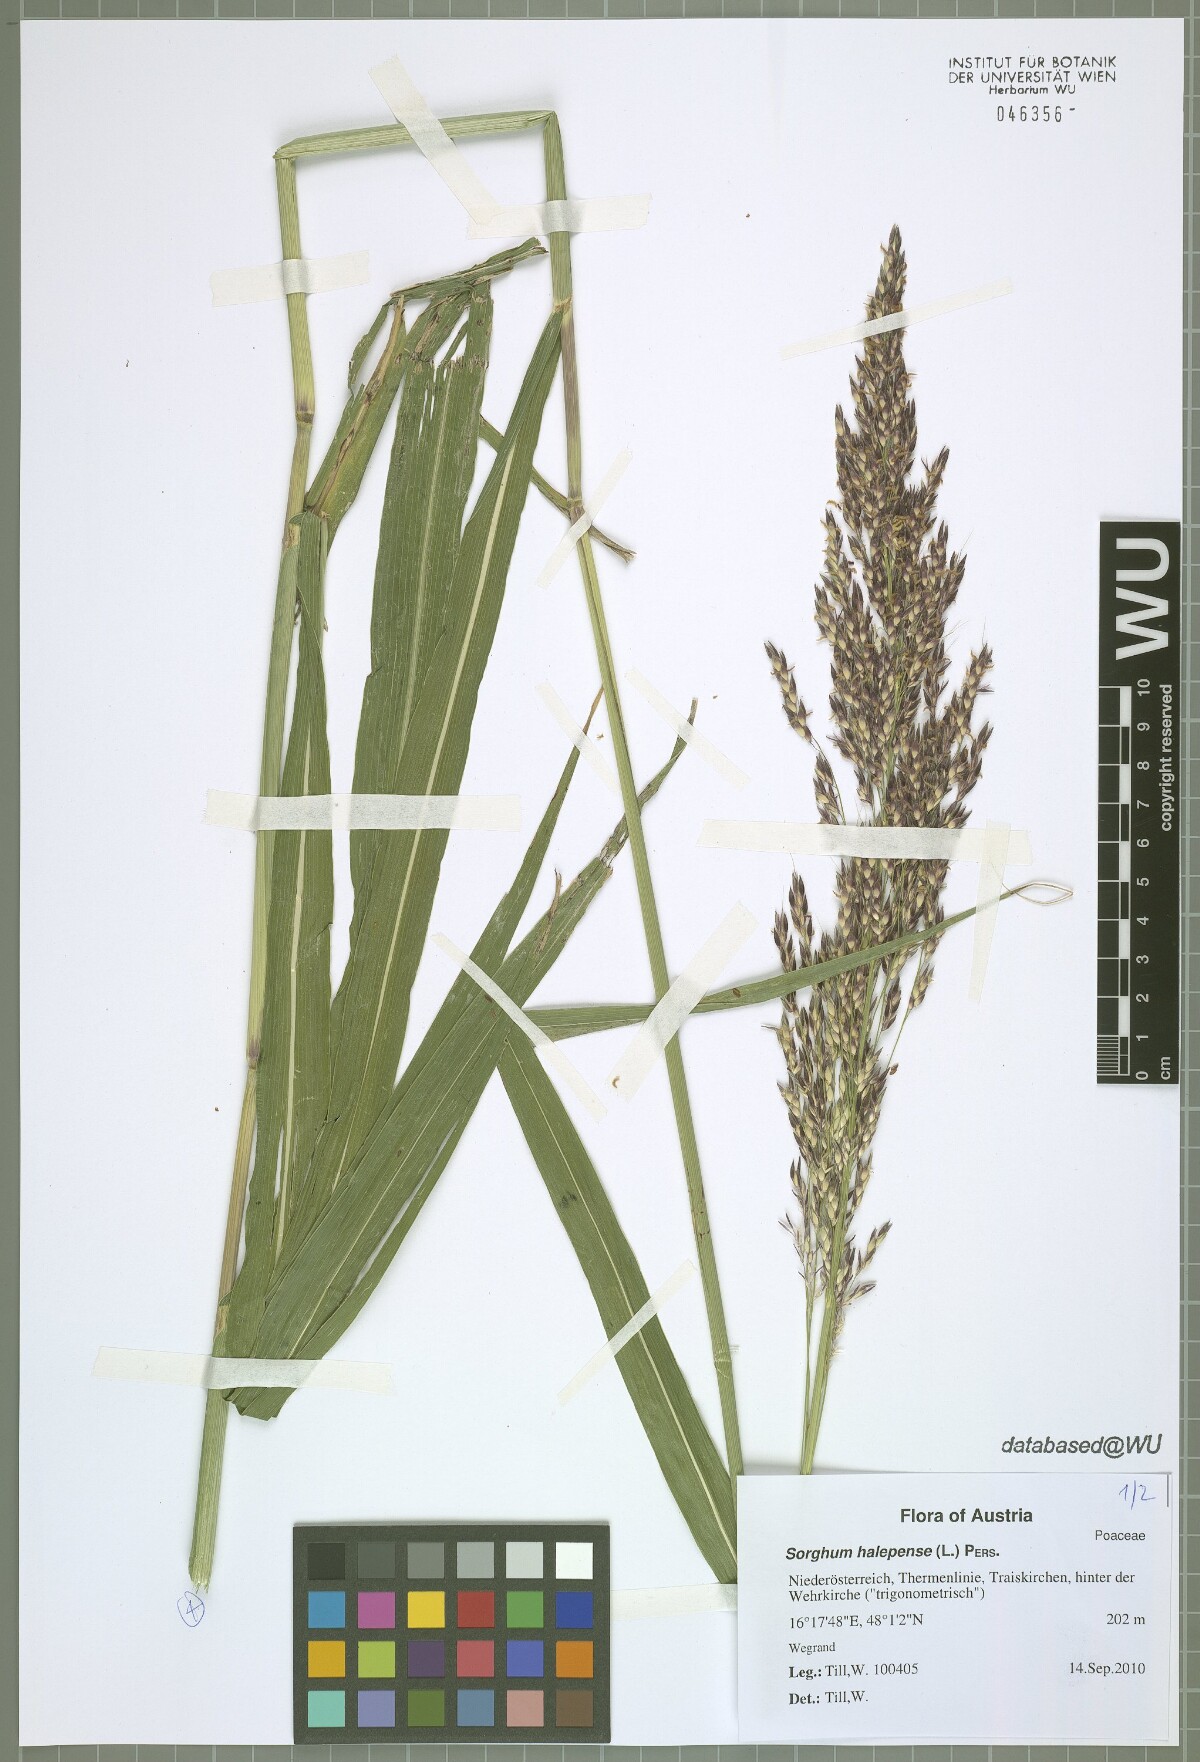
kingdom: Plantae
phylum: Tracheophyta
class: Liliopsida
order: Poales
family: Poaceae
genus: Sorghum
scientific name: Sorghum halepense
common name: Johnson-grass
